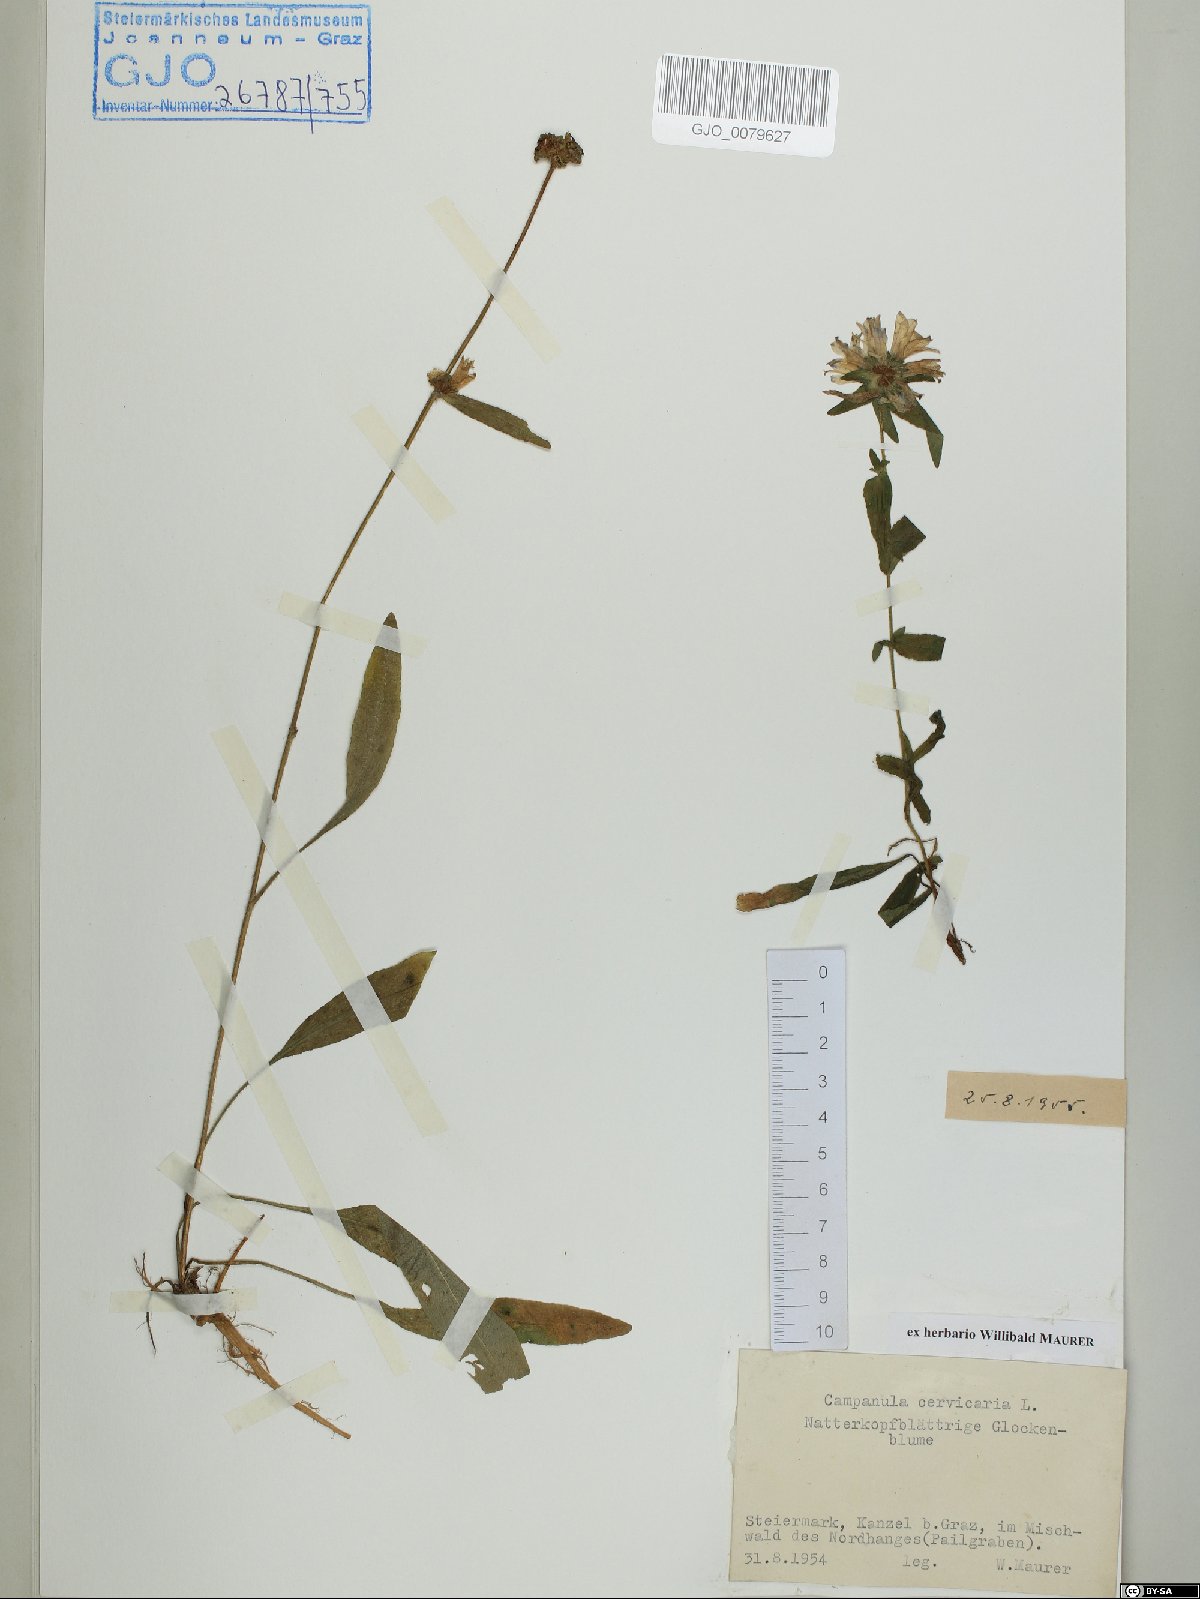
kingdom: Plantae
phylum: Tracheophyta
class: Magnoliopsida
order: Asterales
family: Campanulaceae
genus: Campanula
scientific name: Campanula cervicaria
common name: Bristly bellflower
